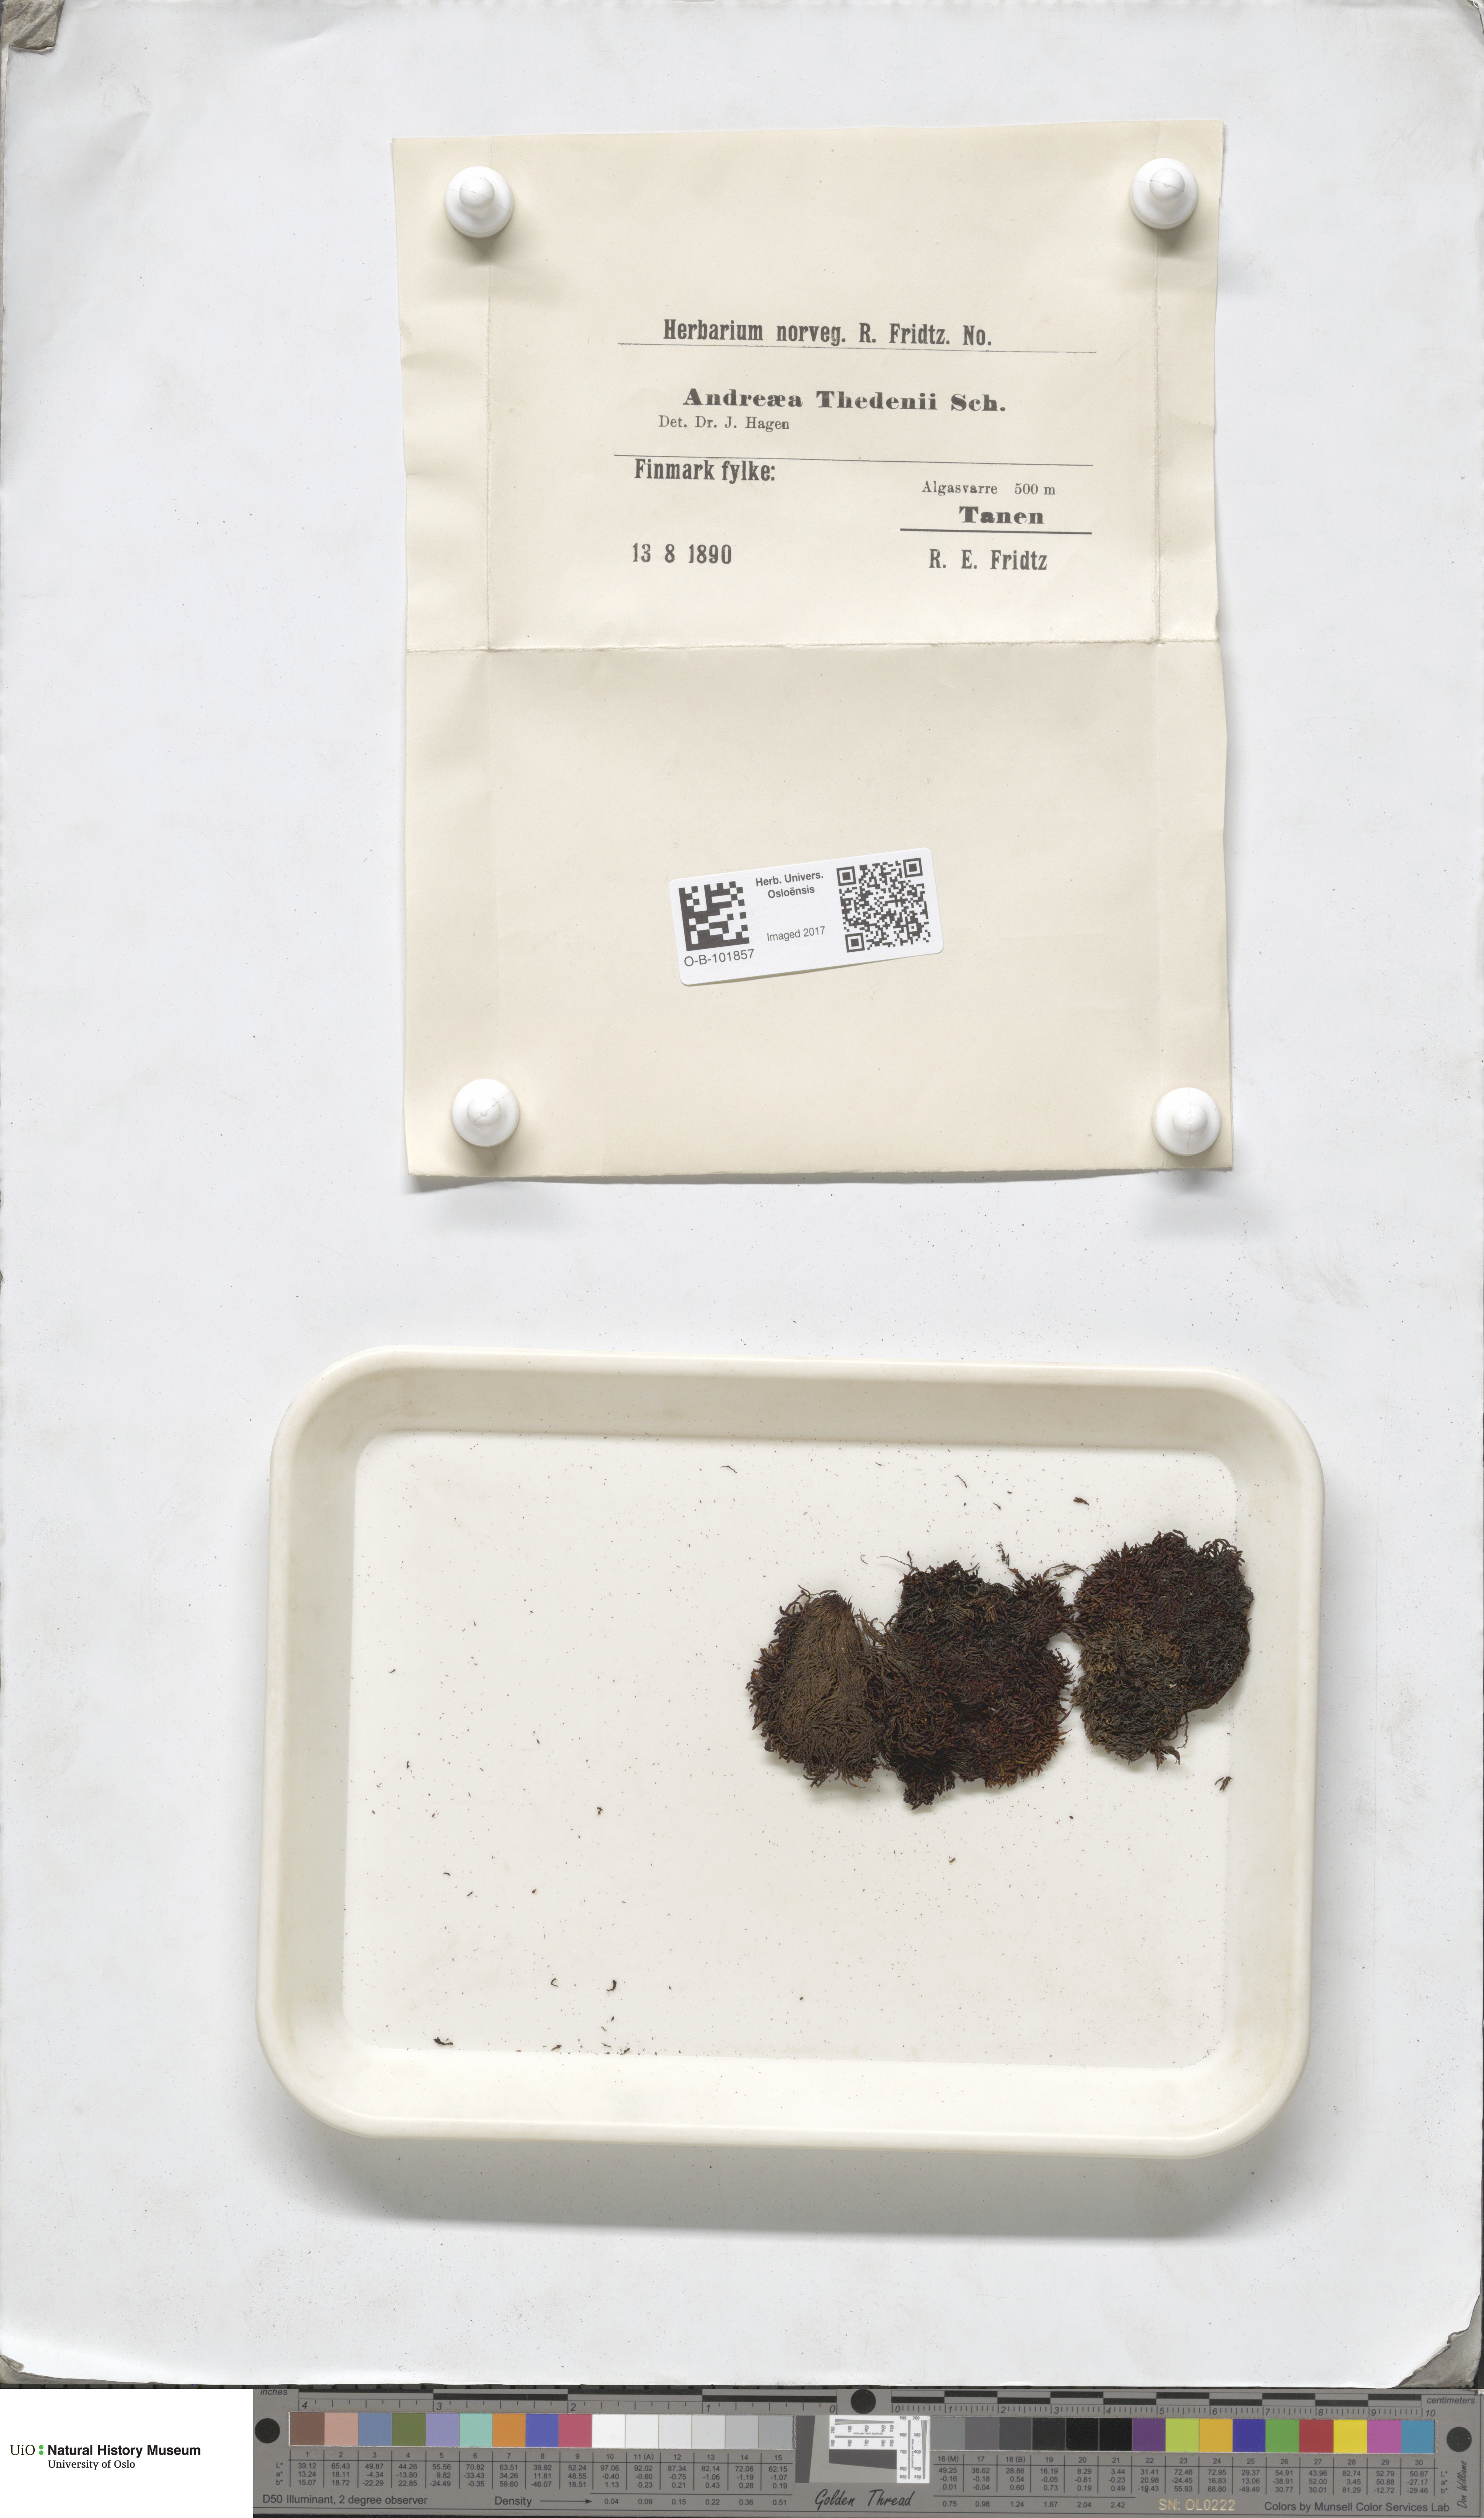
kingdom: Plantae
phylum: Bryophyta
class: Andreaeopsida
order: Andreaeales
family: Andreaeaceae
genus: Andreaea
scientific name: Andreaea hookeri
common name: Alpine rock-moss
